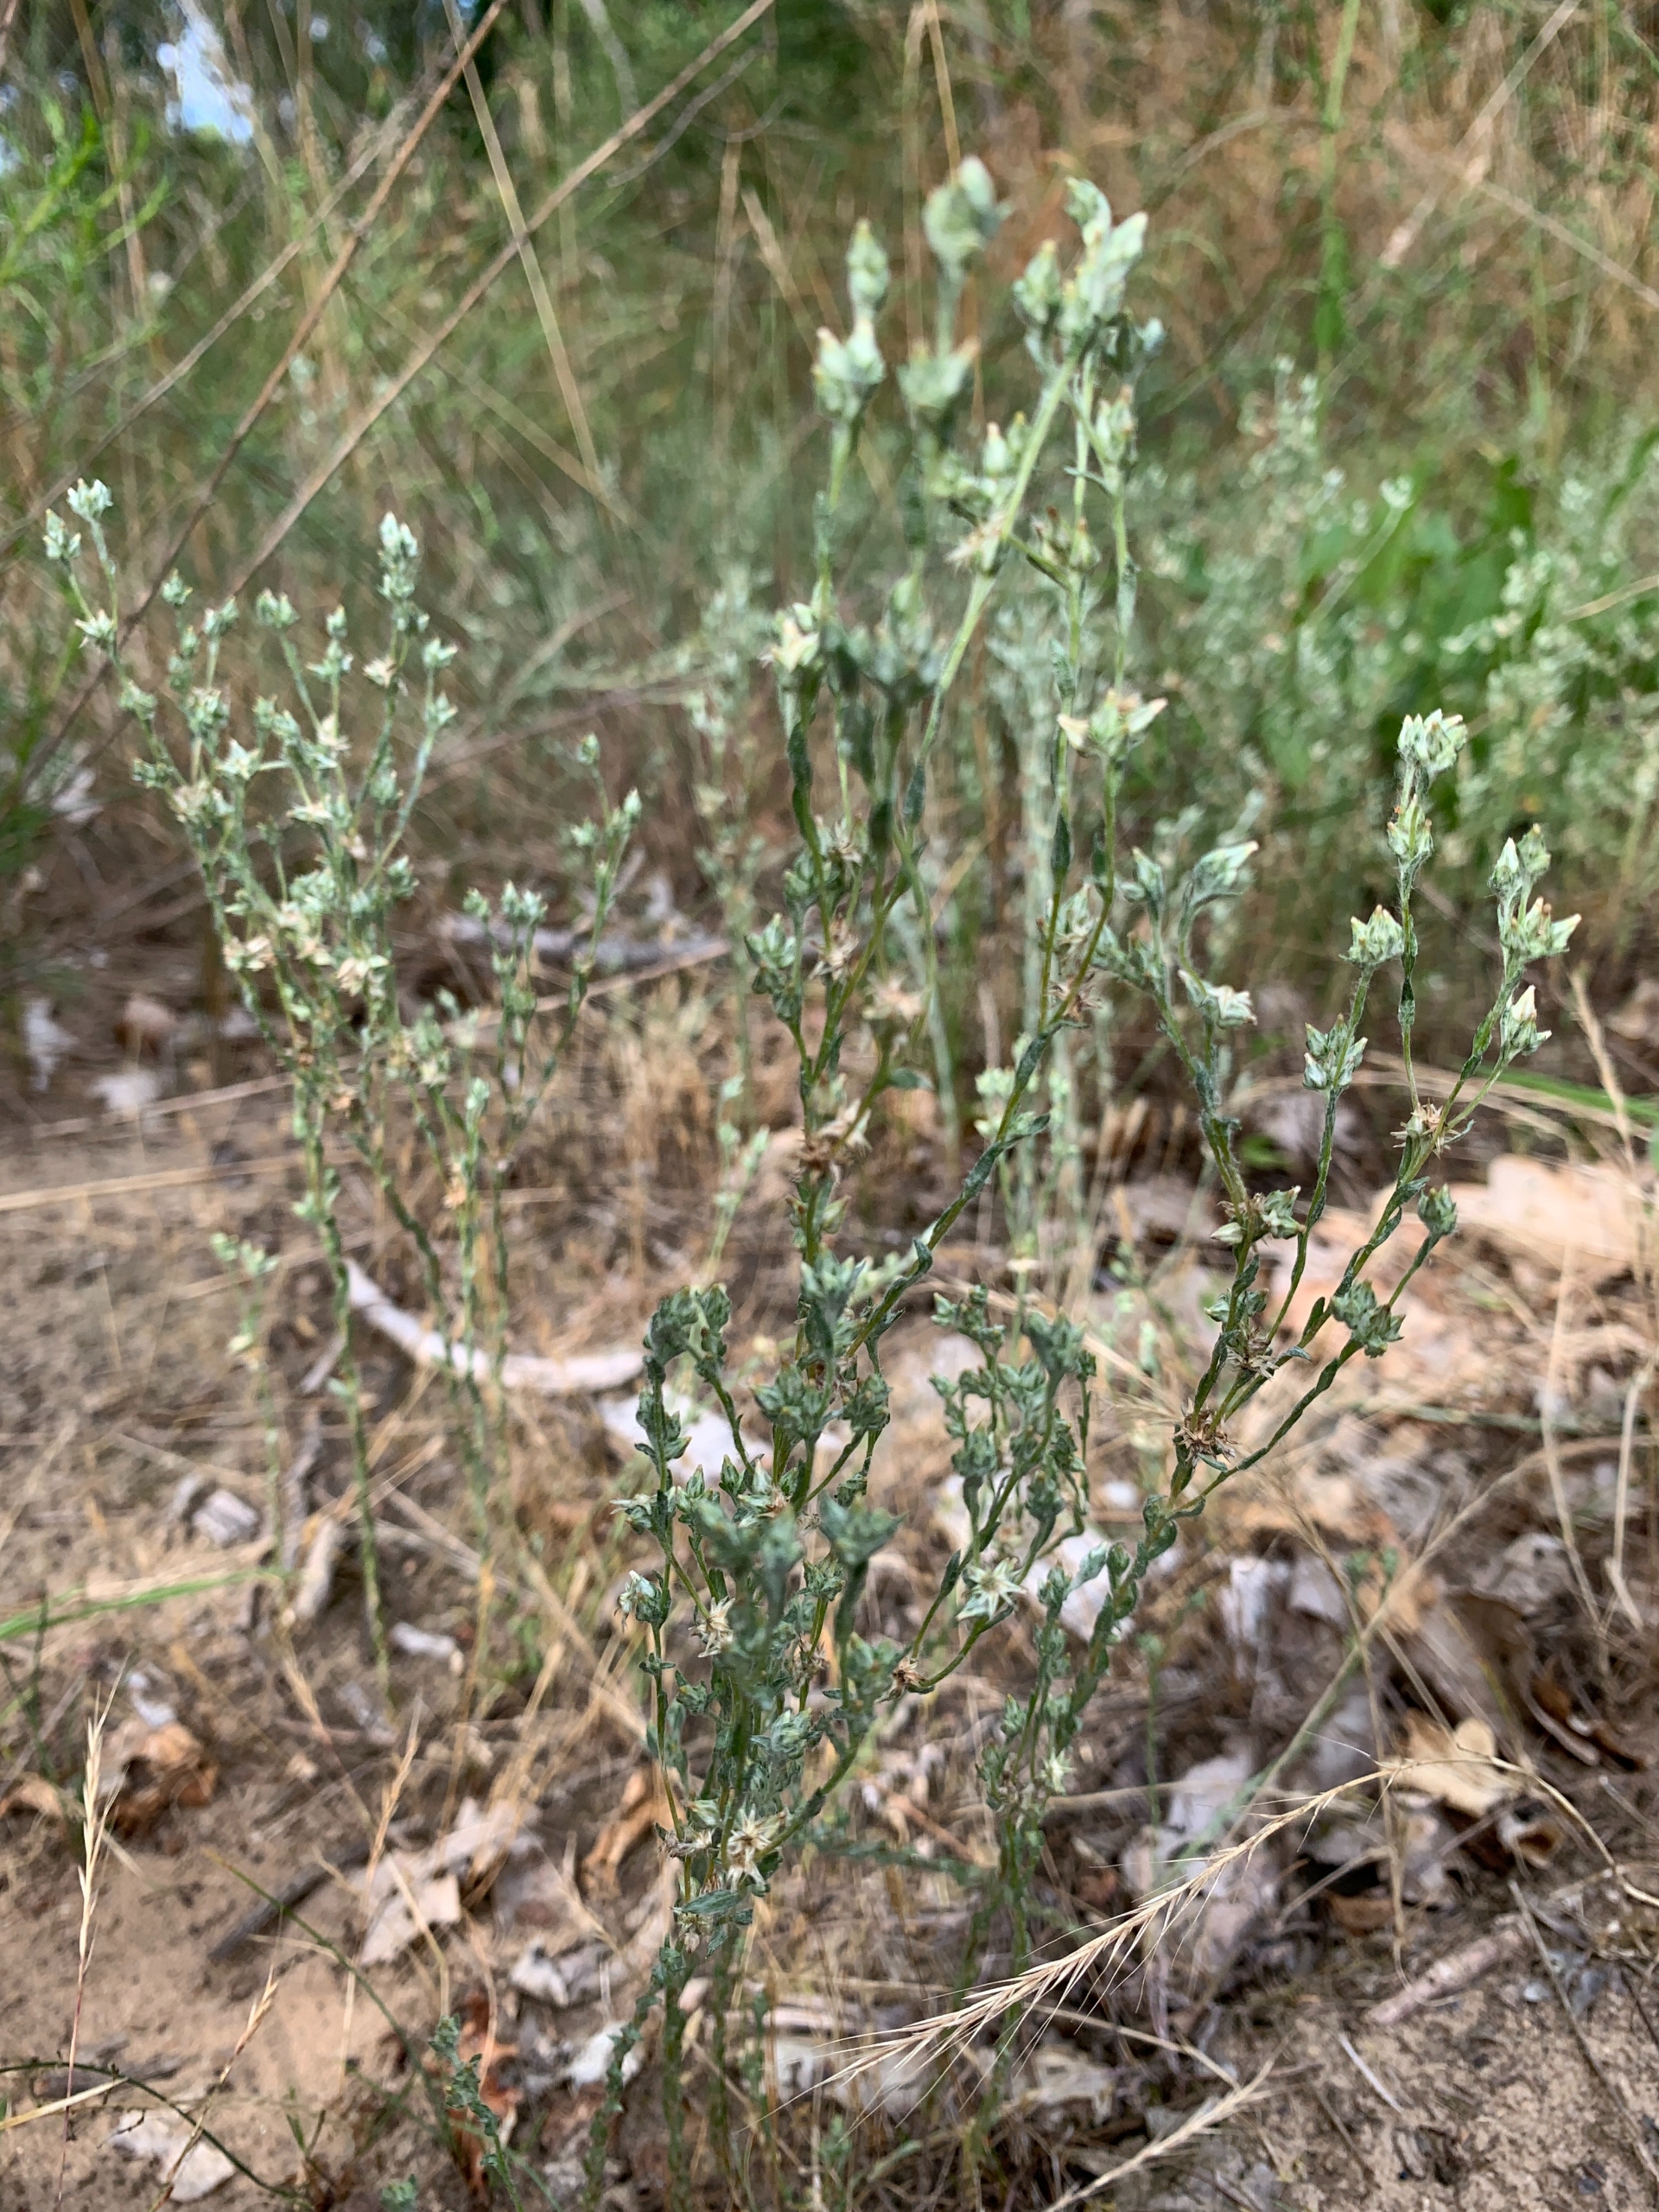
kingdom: Plantae
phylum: Tracheophyta
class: Magnoliopsida
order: Asterales
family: Asteraceae
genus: Logfia
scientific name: Logfia minima
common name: Liden museurt
